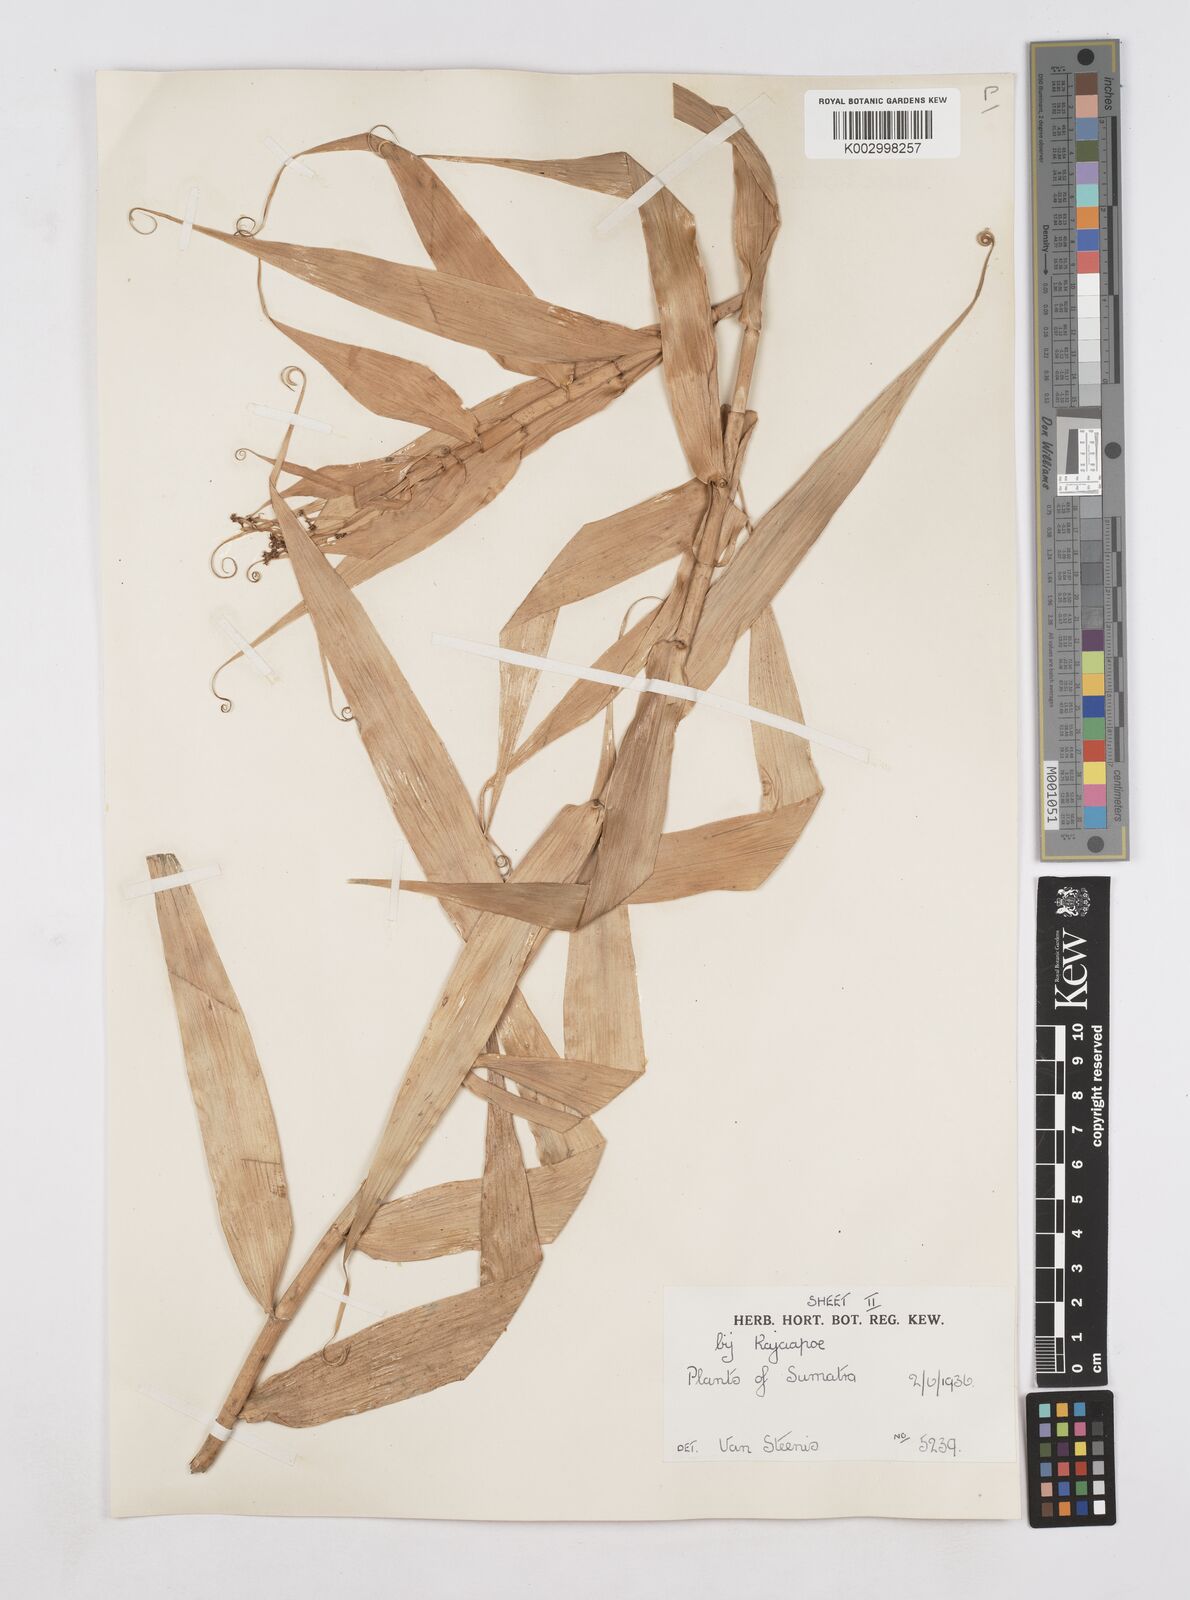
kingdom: Plantae
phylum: Tracheophyta
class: Liliopsida
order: Poales
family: Flagellariaceae
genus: Flagellaria
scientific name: Flagellaria indica
